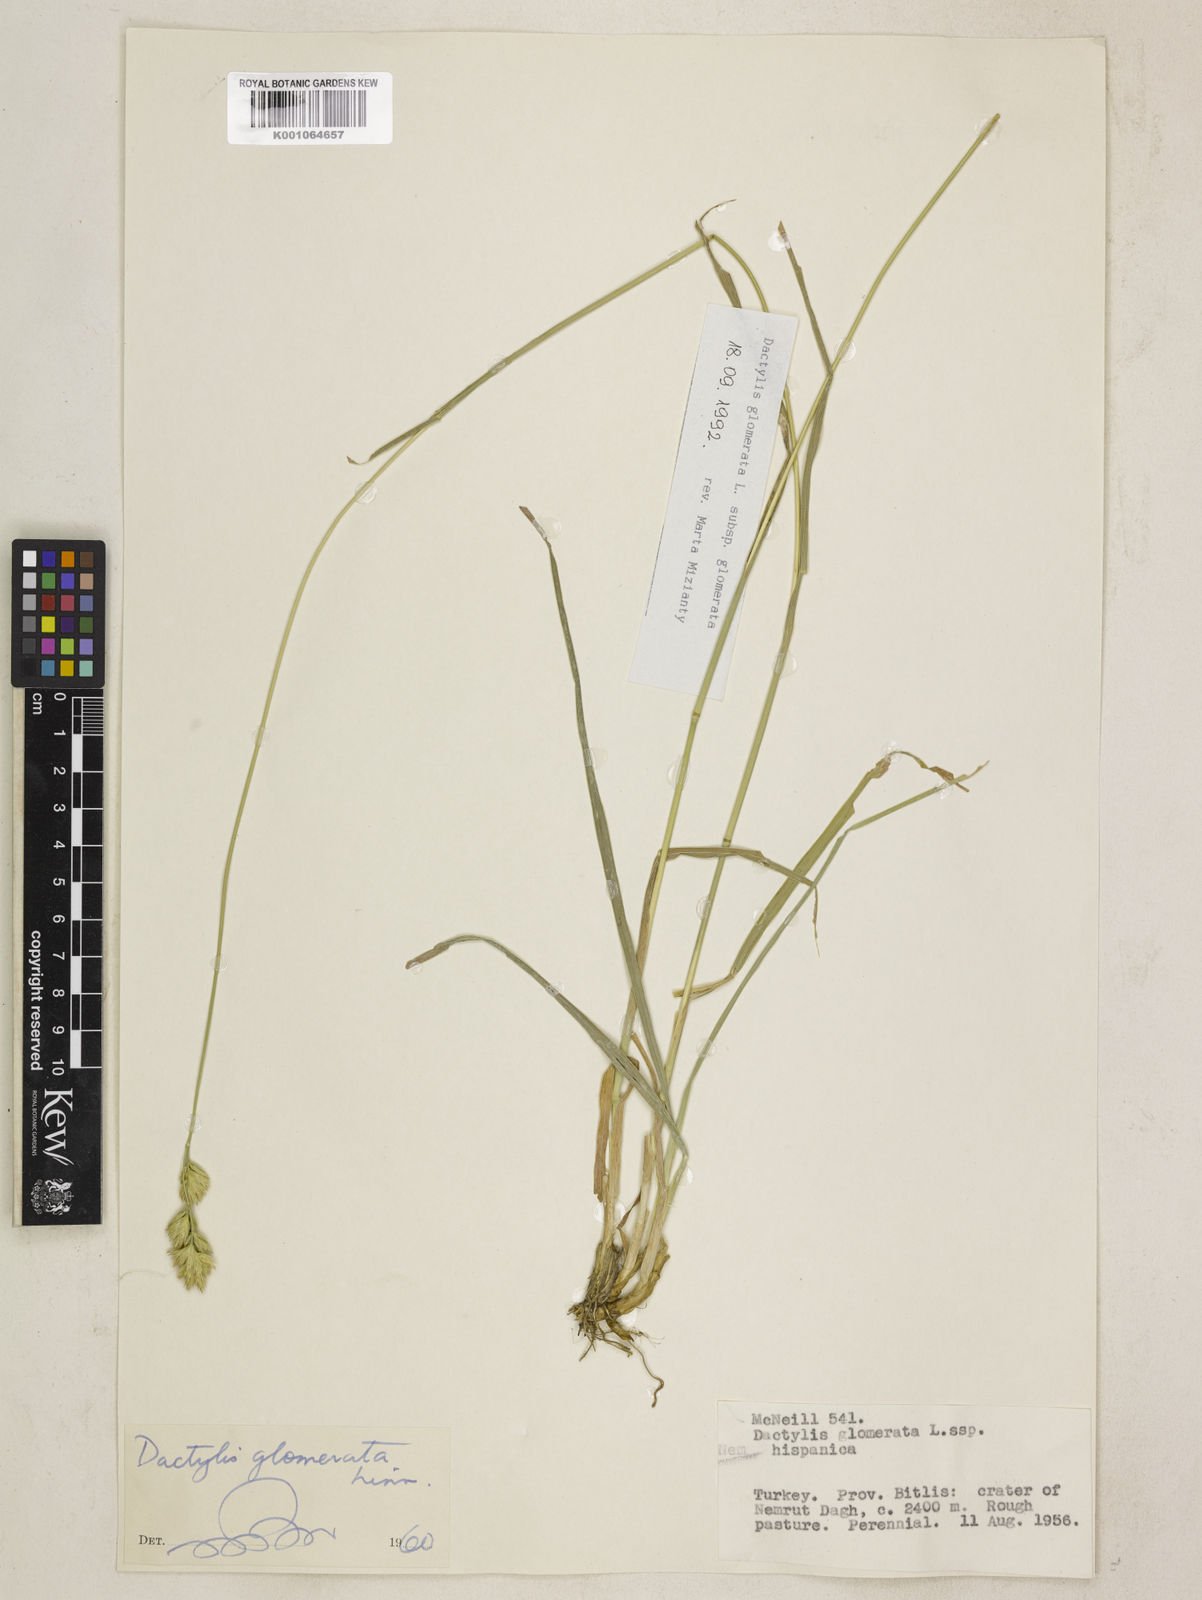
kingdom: Plantae
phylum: Tracheophyta
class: Liliopsida
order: Poales
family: Poaceae
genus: Dactylis
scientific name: Dactylis glomerata
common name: Orchardgrass
